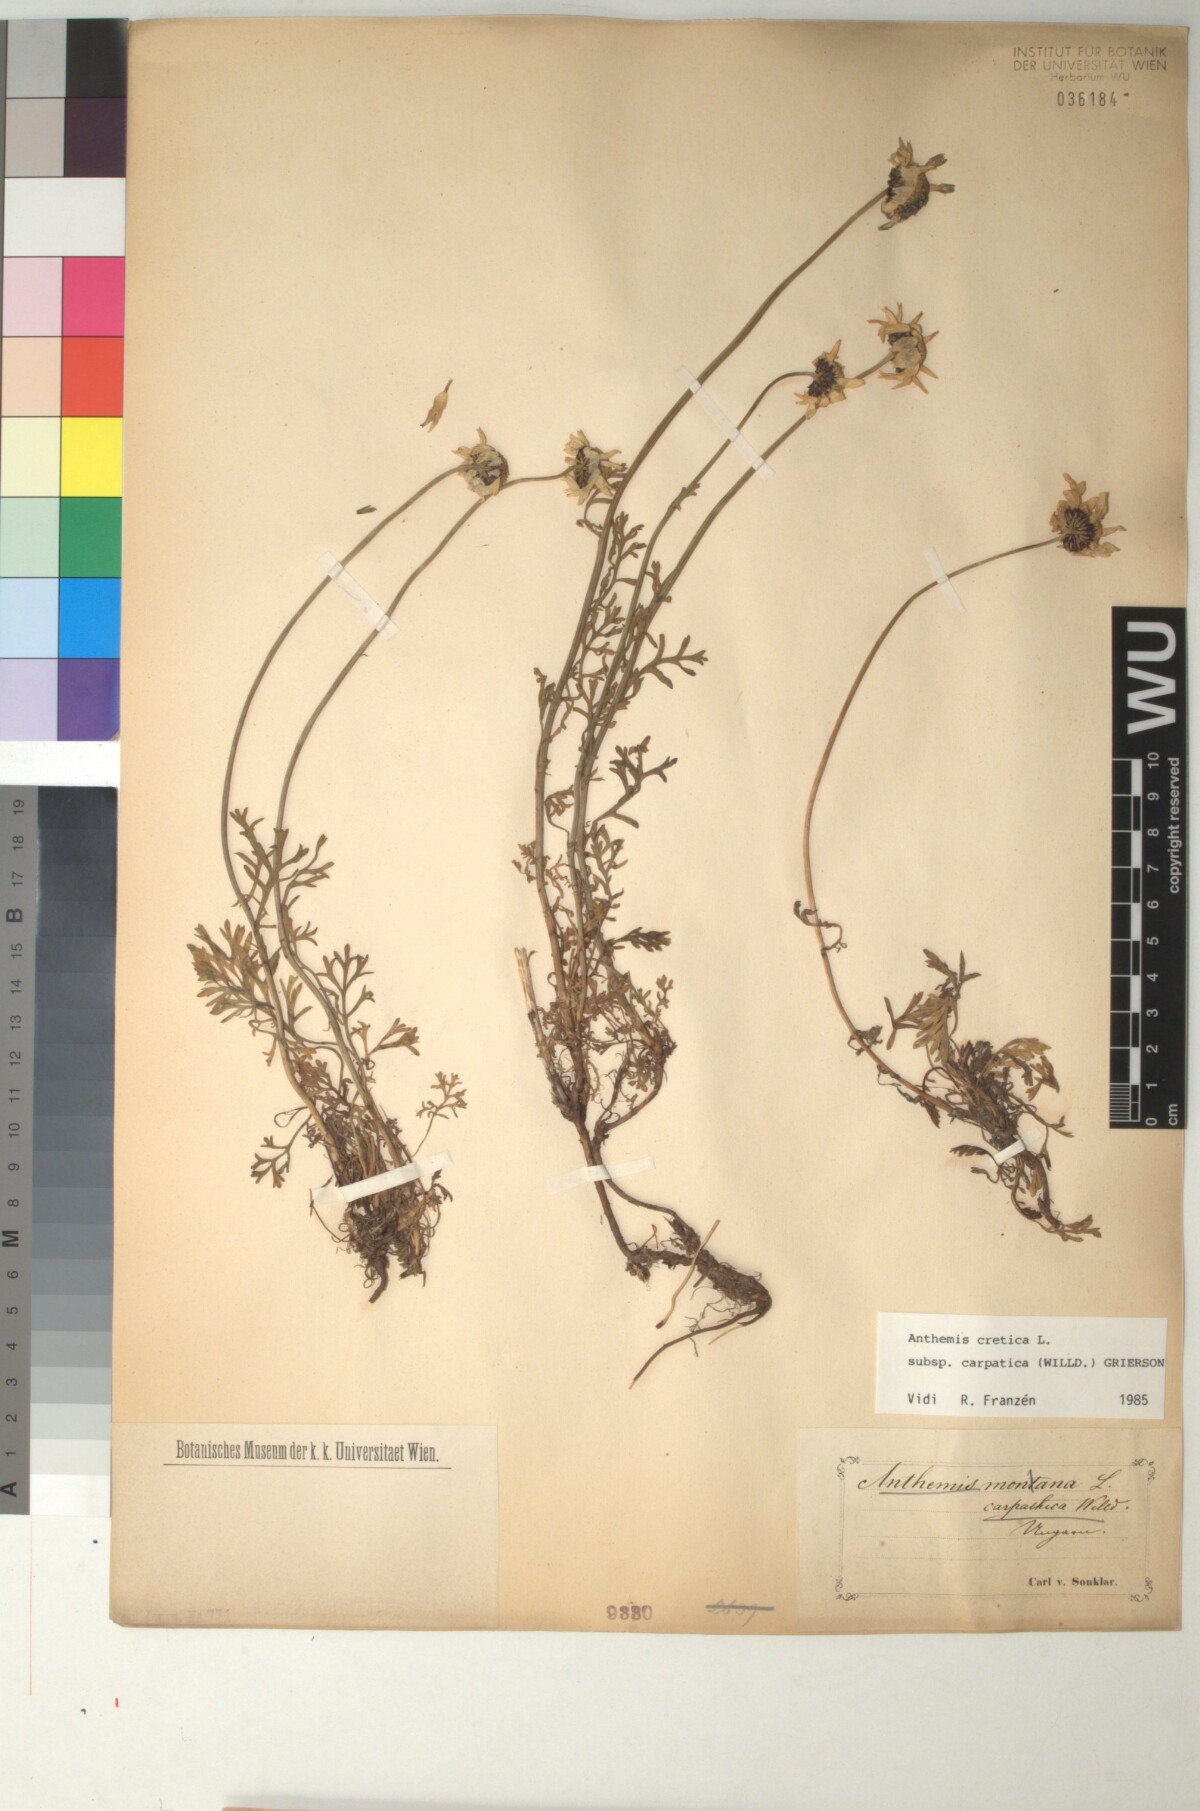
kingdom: Plantae
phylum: Tracheophyta
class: Magnoliopsida
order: Asterales
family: Asteraceae
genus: Anthemis
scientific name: Anthemis cretica
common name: Mountain dog-daisy
